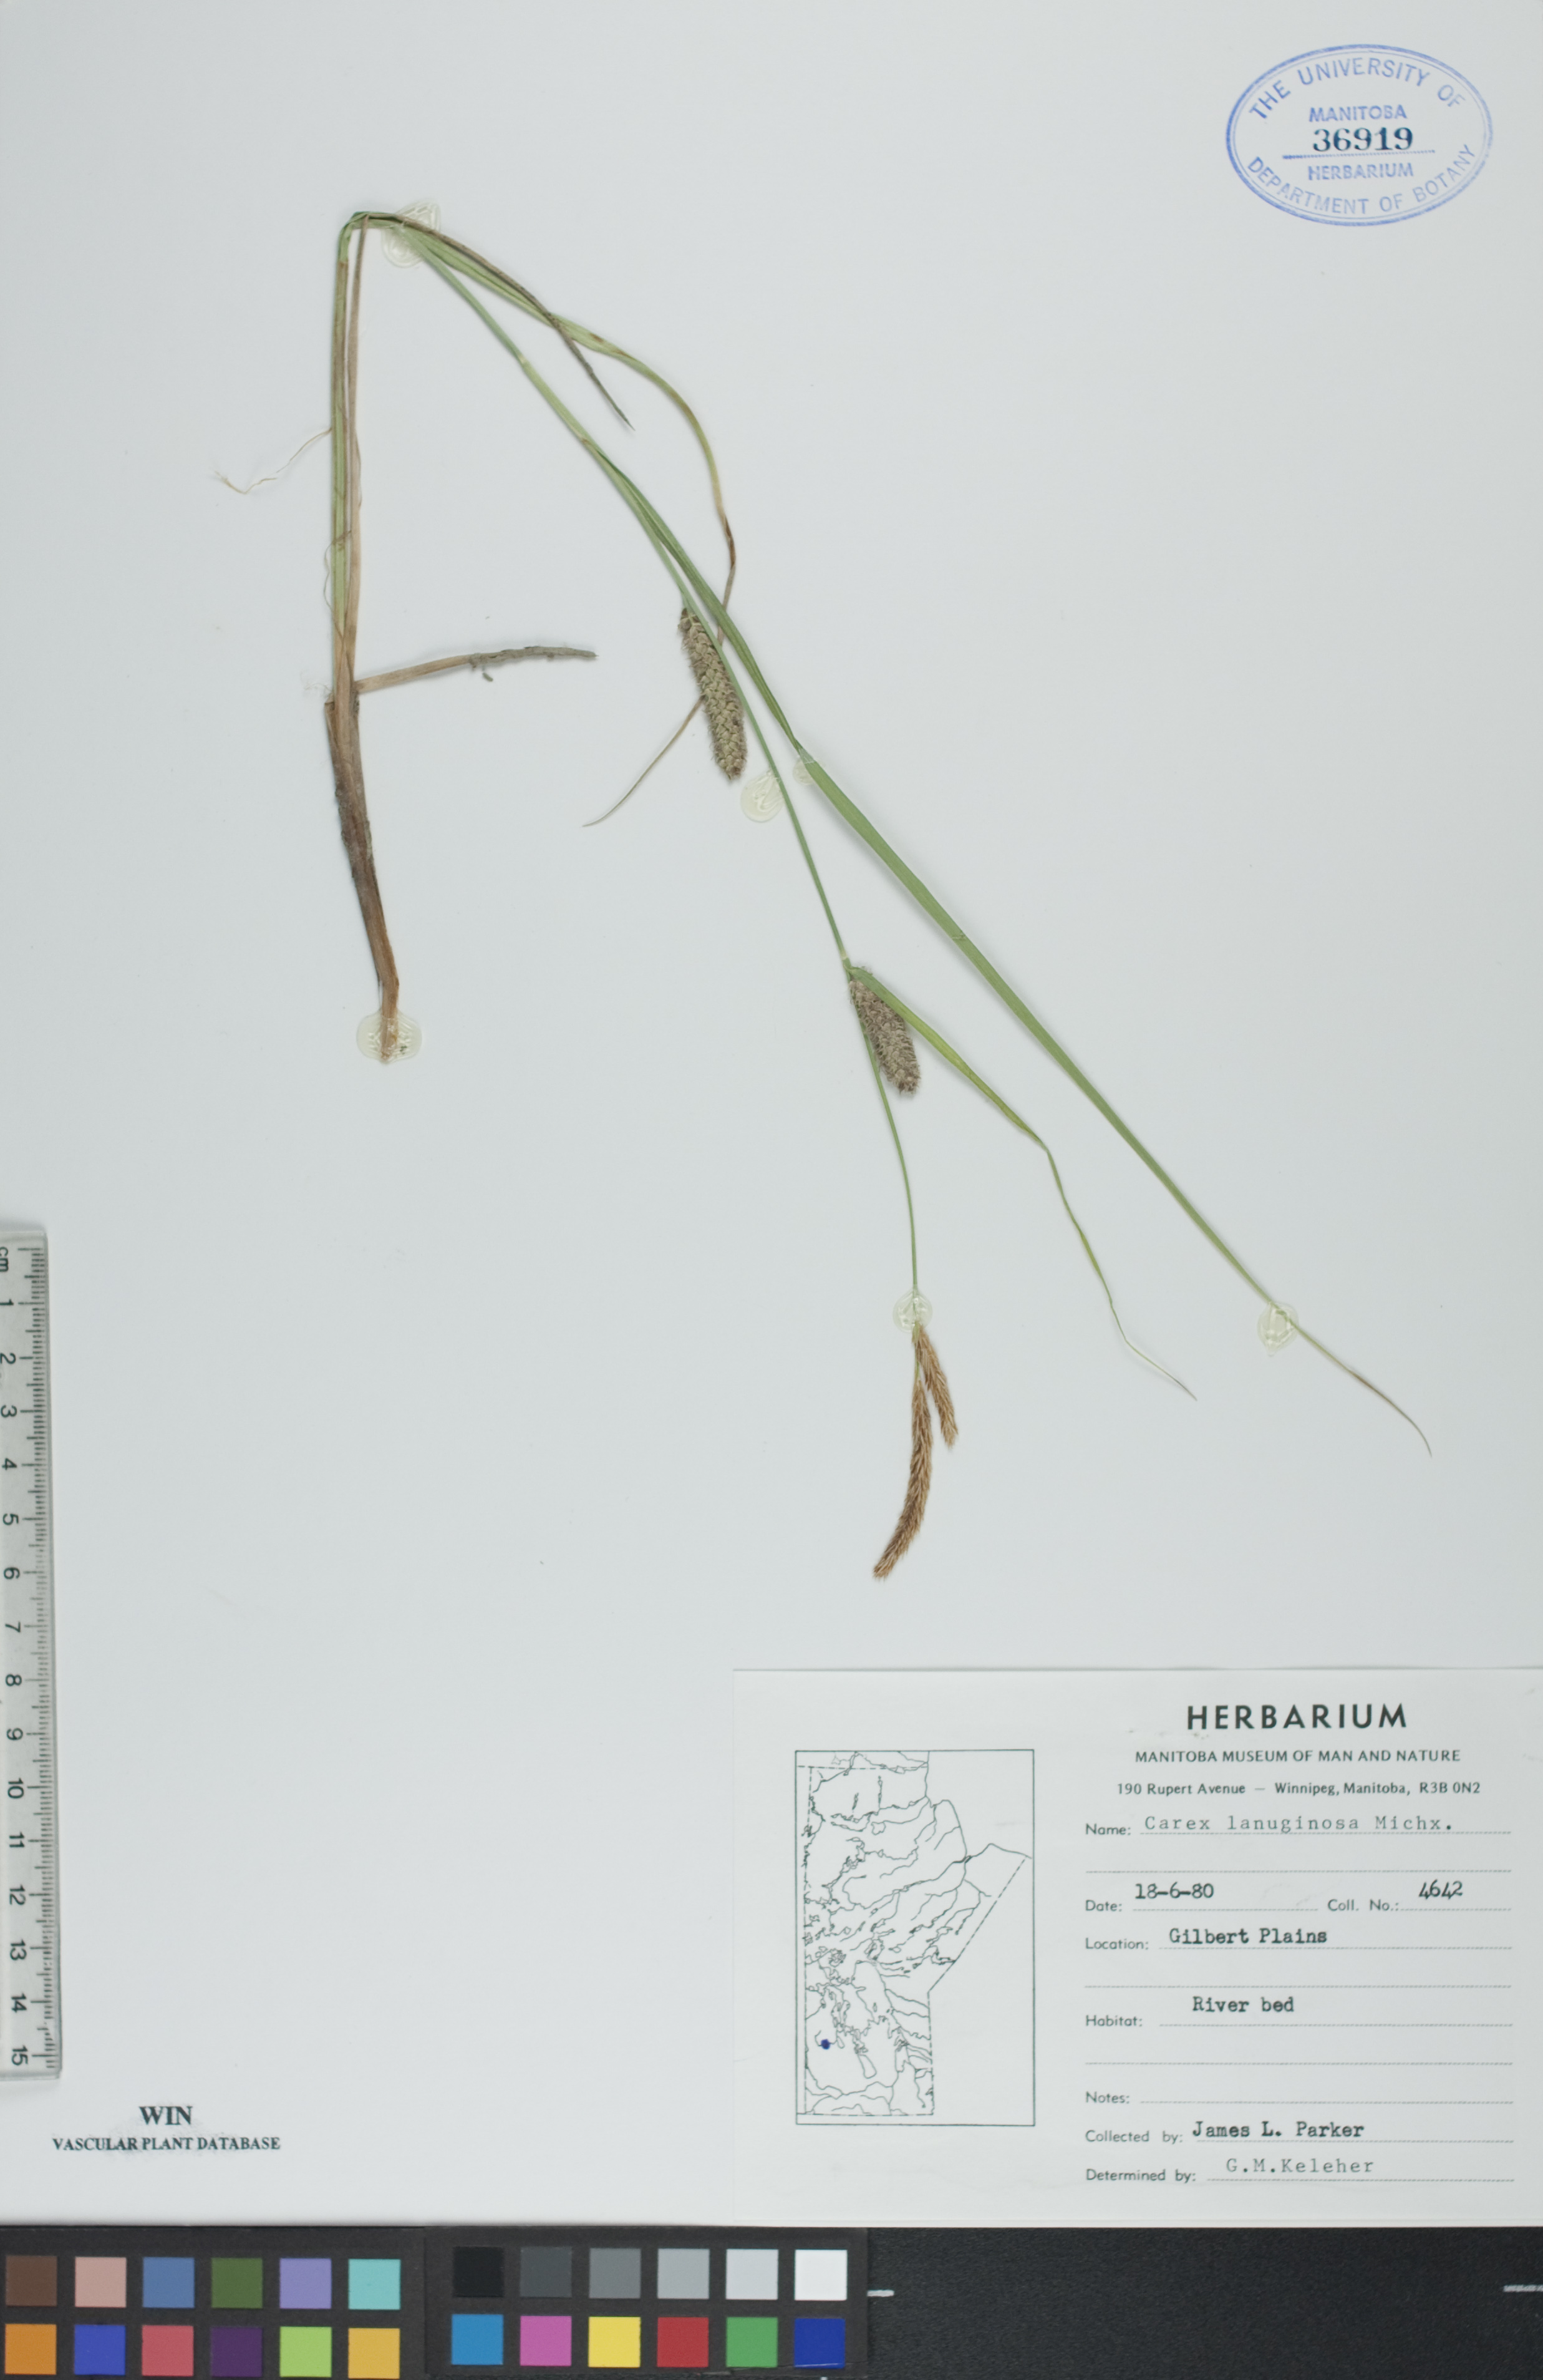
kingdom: Plantae
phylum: Tracheophyta
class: Liliopsida
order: Poales
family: Cyperaceae
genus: Carex
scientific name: Carex lasiocarpa
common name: Slender sedge
